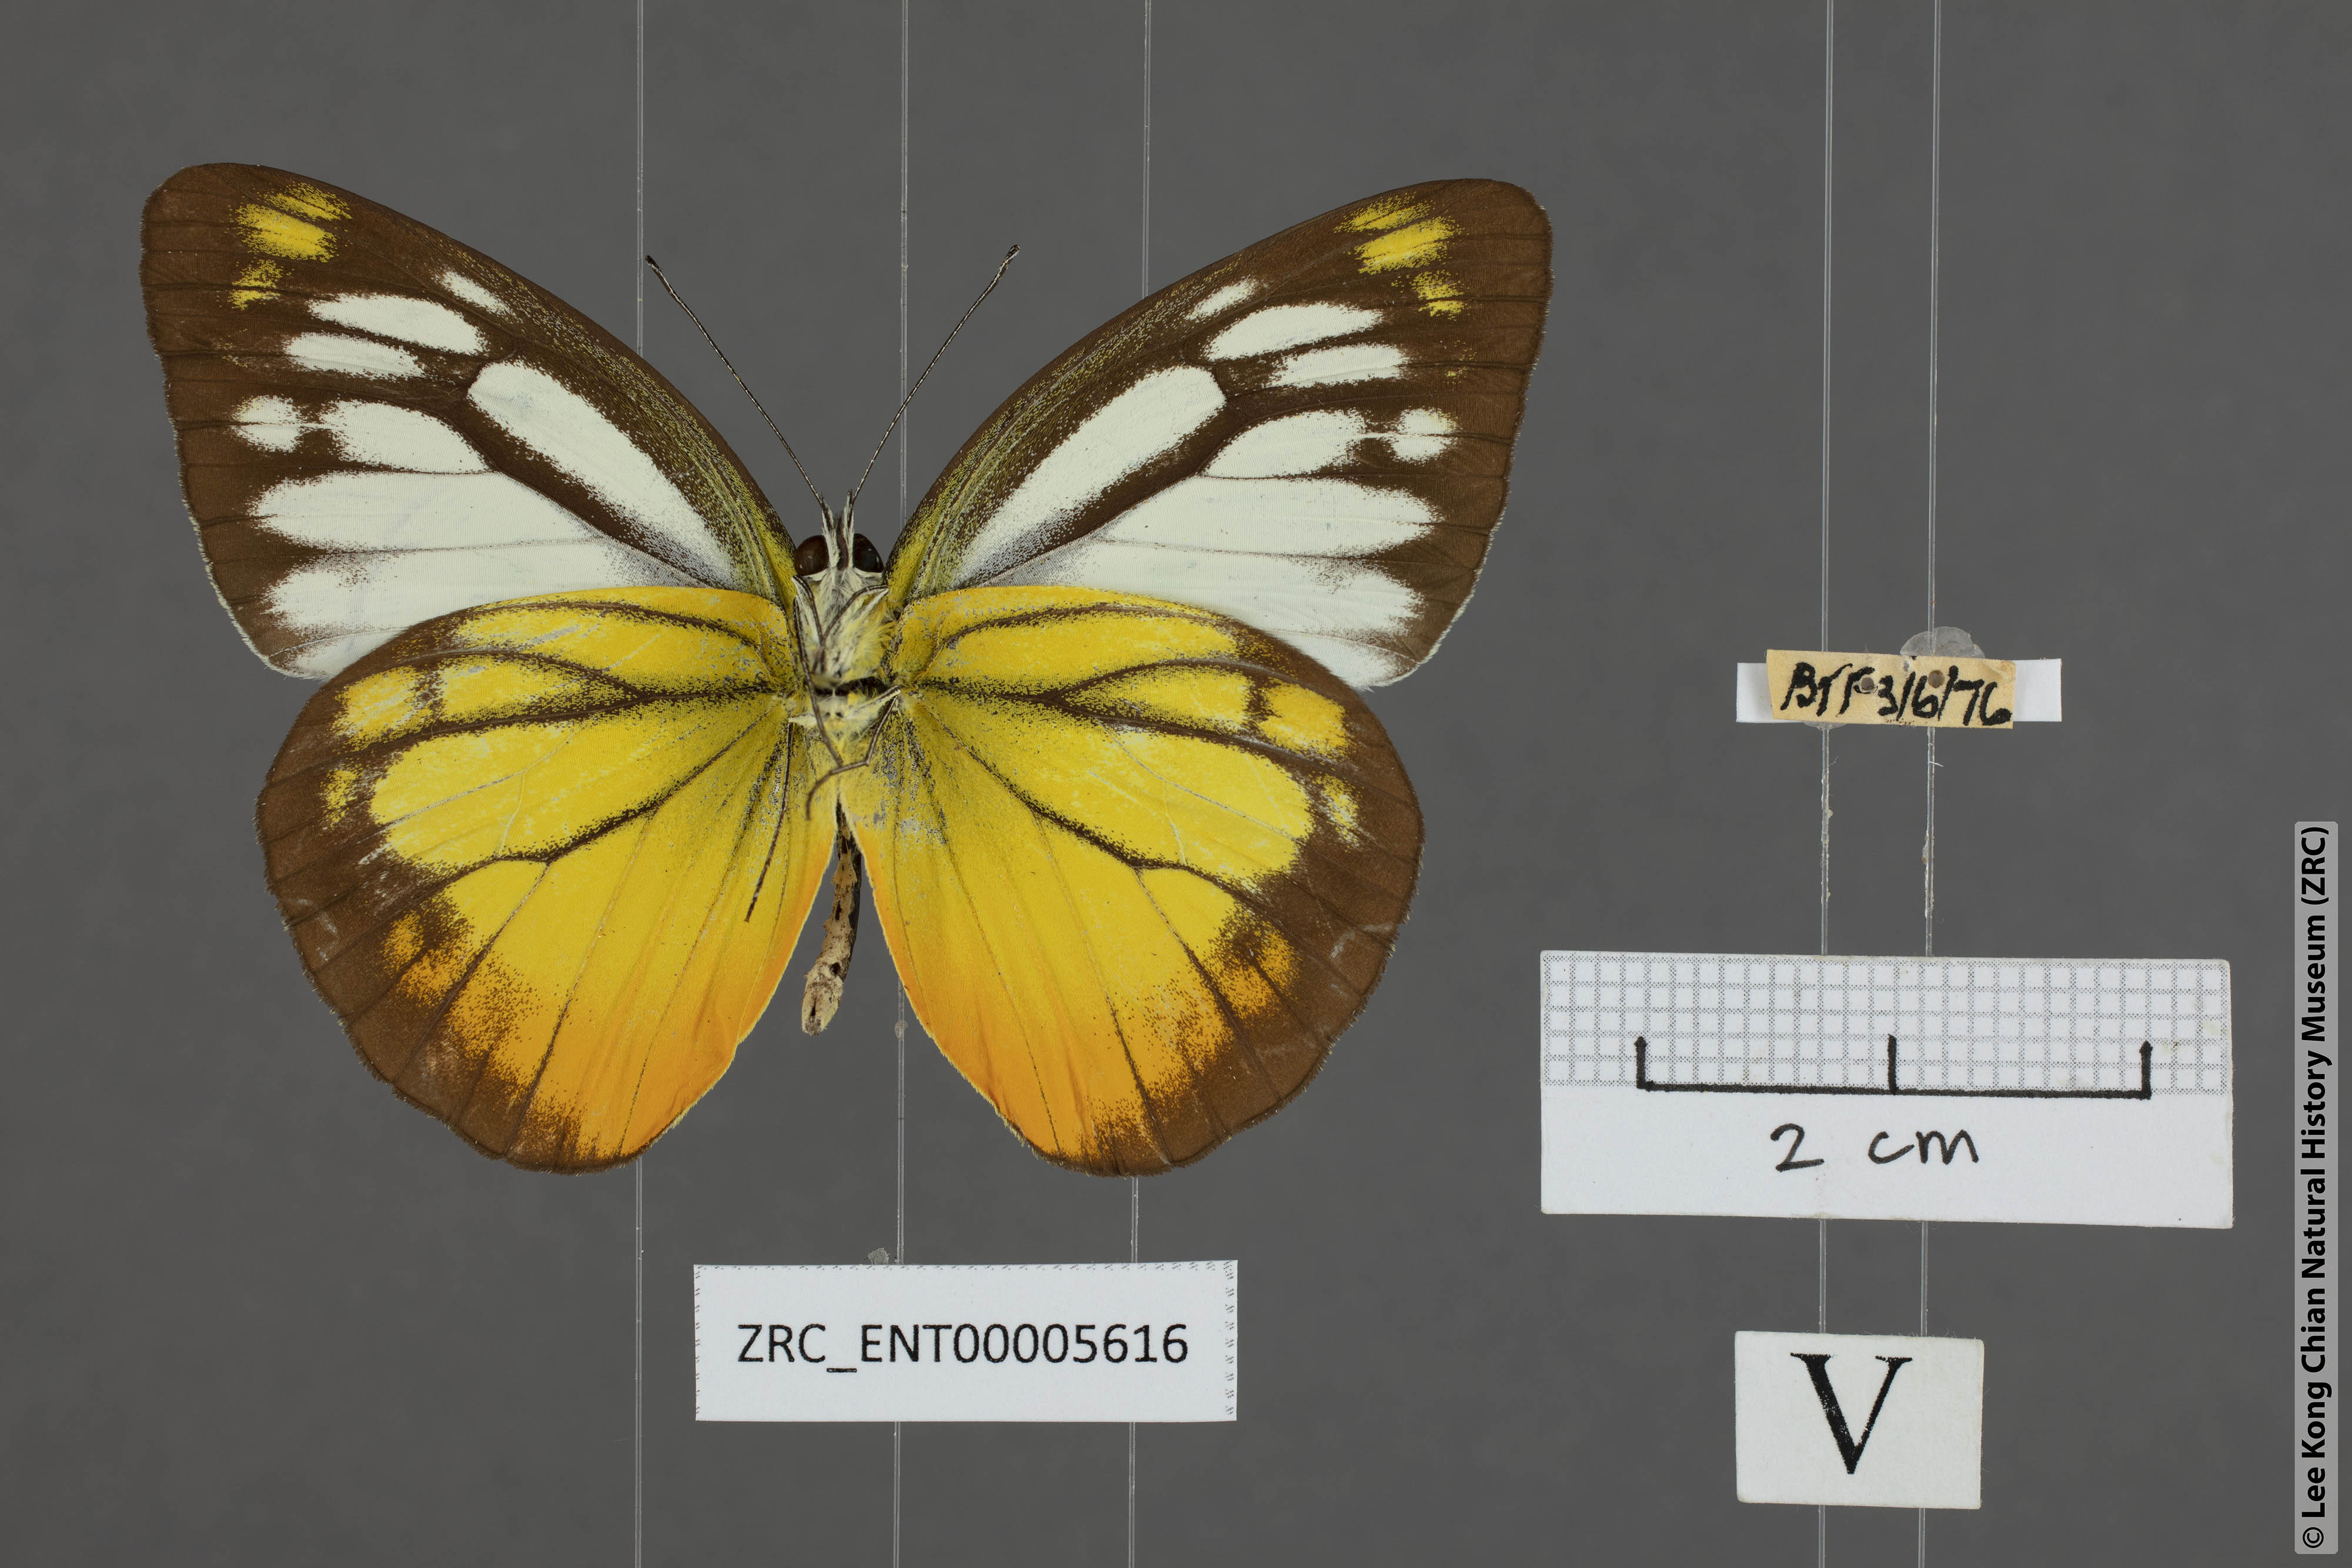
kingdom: Animalia
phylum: Arthropoda
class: Insecta
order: Lepidoptera
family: Pieridae
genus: Cepora
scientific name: Cepora iudith
